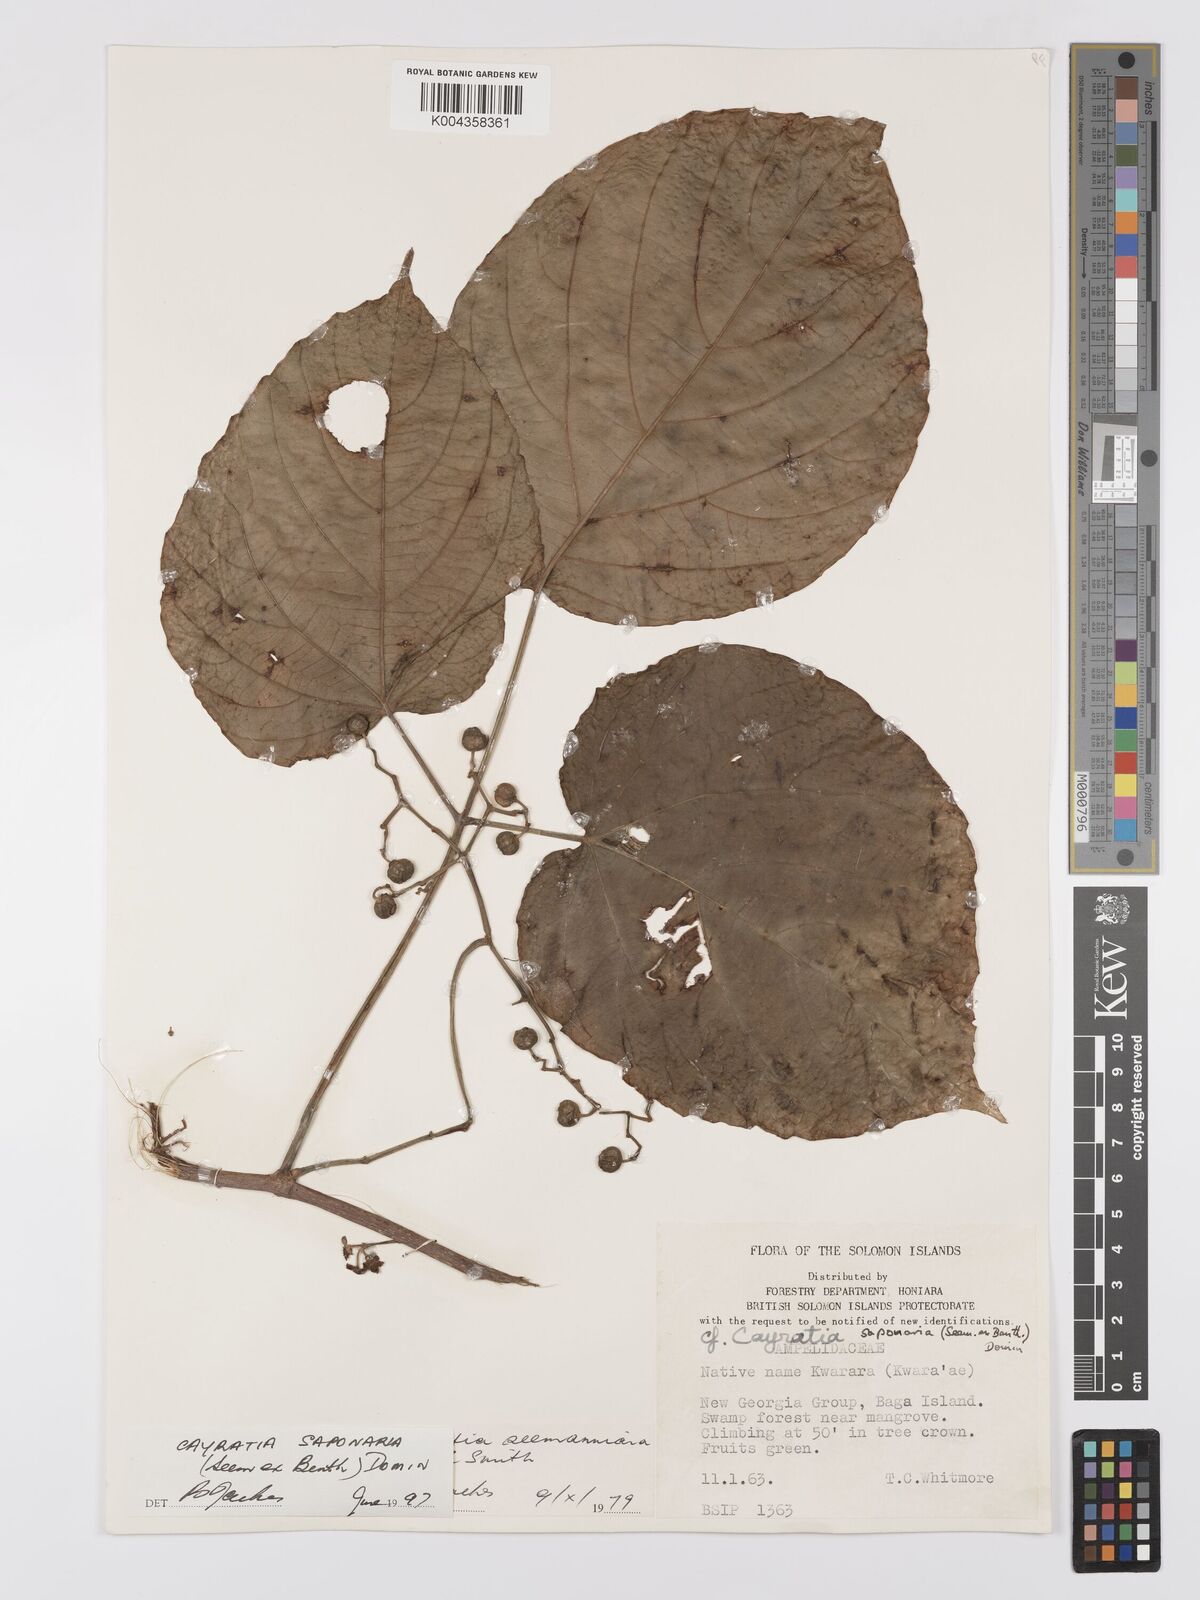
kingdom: Plantae
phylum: Tracheophyta
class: Magnoliopsida
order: Vitales
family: Vitaceae
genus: Cayratia
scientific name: Cayratia saponaria
